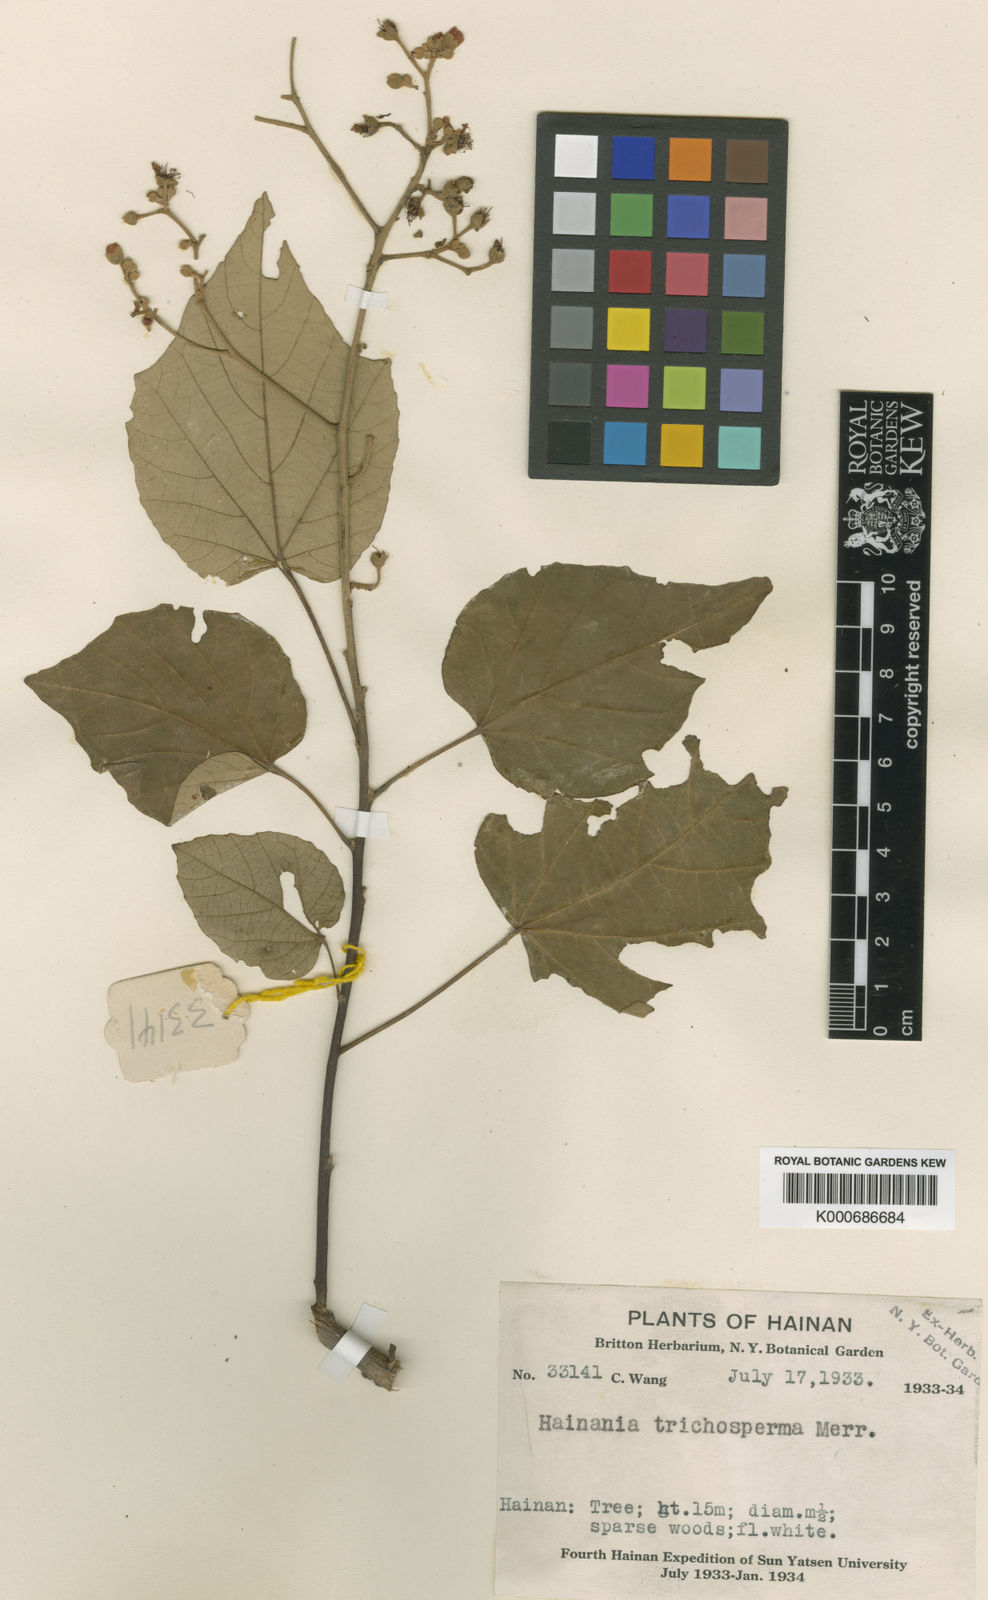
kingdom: Plantae
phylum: Tracheophyta
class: Magnoliopsida
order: Malvales
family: Malvaceae
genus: Pityranthe
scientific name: Pityranthe trichosperma
